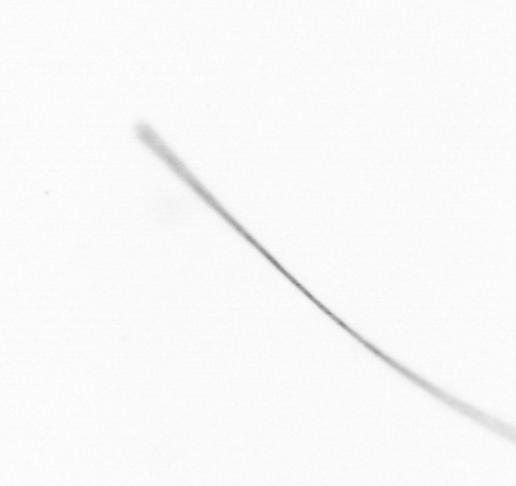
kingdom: Chromista
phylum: Ochrophyta
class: Bacillariophyceae
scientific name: Bacillariophyceae
